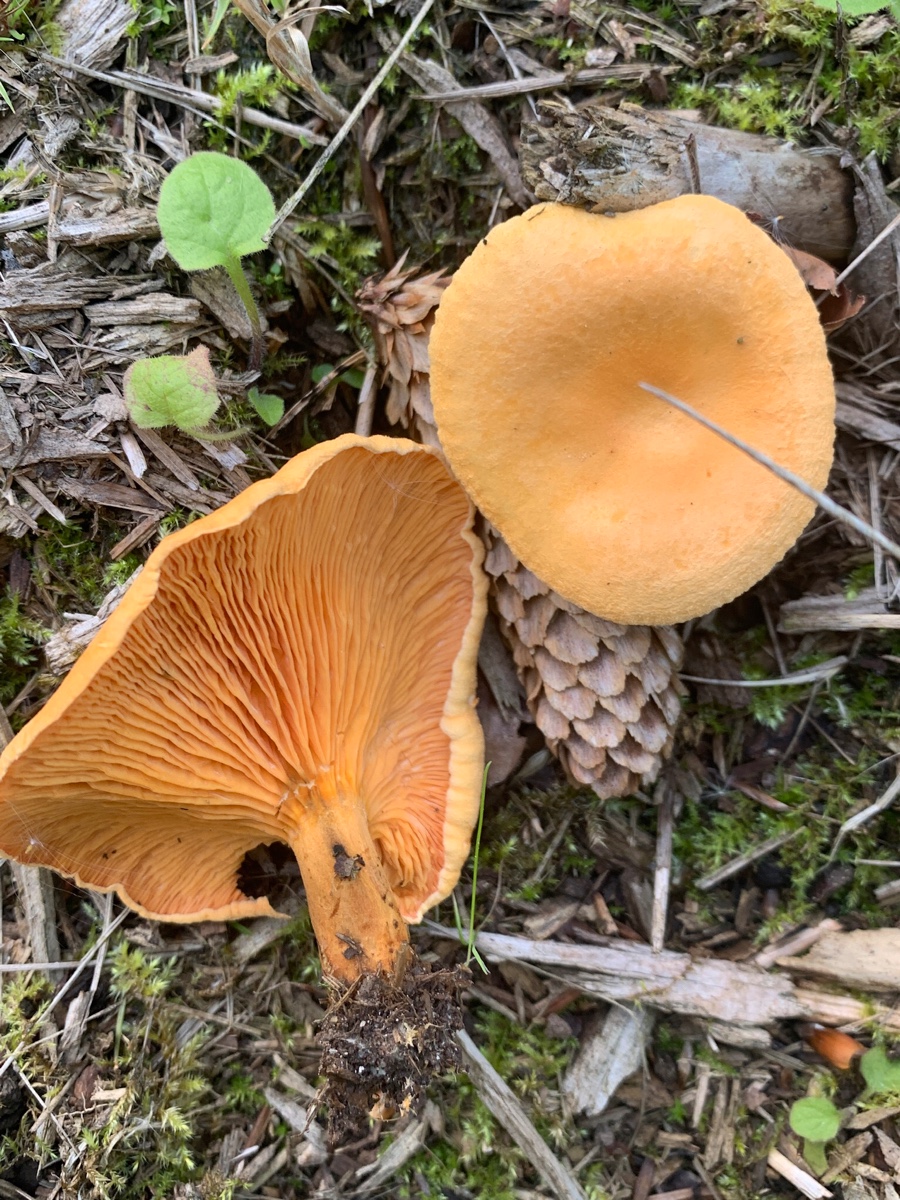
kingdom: Fungi
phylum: Basidiomycota
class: Agaricomycetes
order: Boletales
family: Hygrophoropsidaceae
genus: Hygrophoropsis
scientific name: Hygrophoropsis aurantiaca
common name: almindelig orangekantarel
